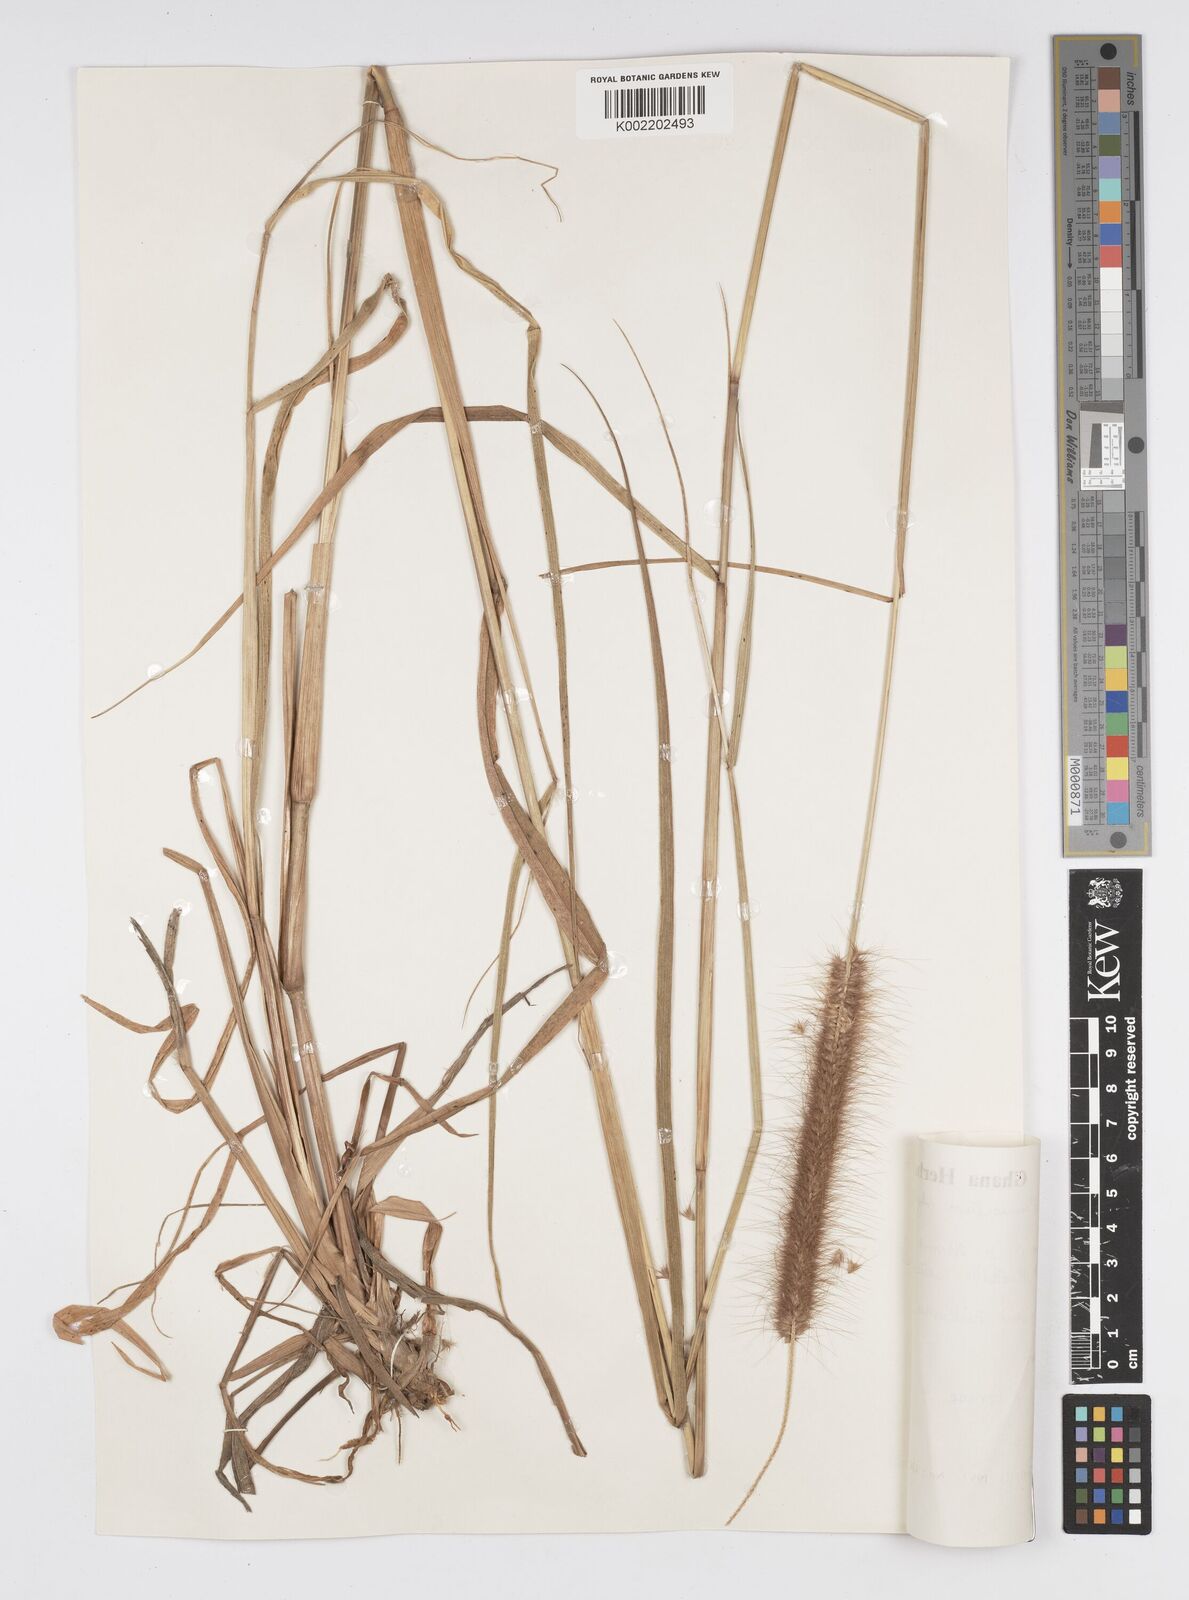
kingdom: Plantae
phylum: Tracheophyta
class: Liliopsida
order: Poales
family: Poaceae
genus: Setaria
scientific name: Setaria parviflora
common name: Knotroot bristle-grass
